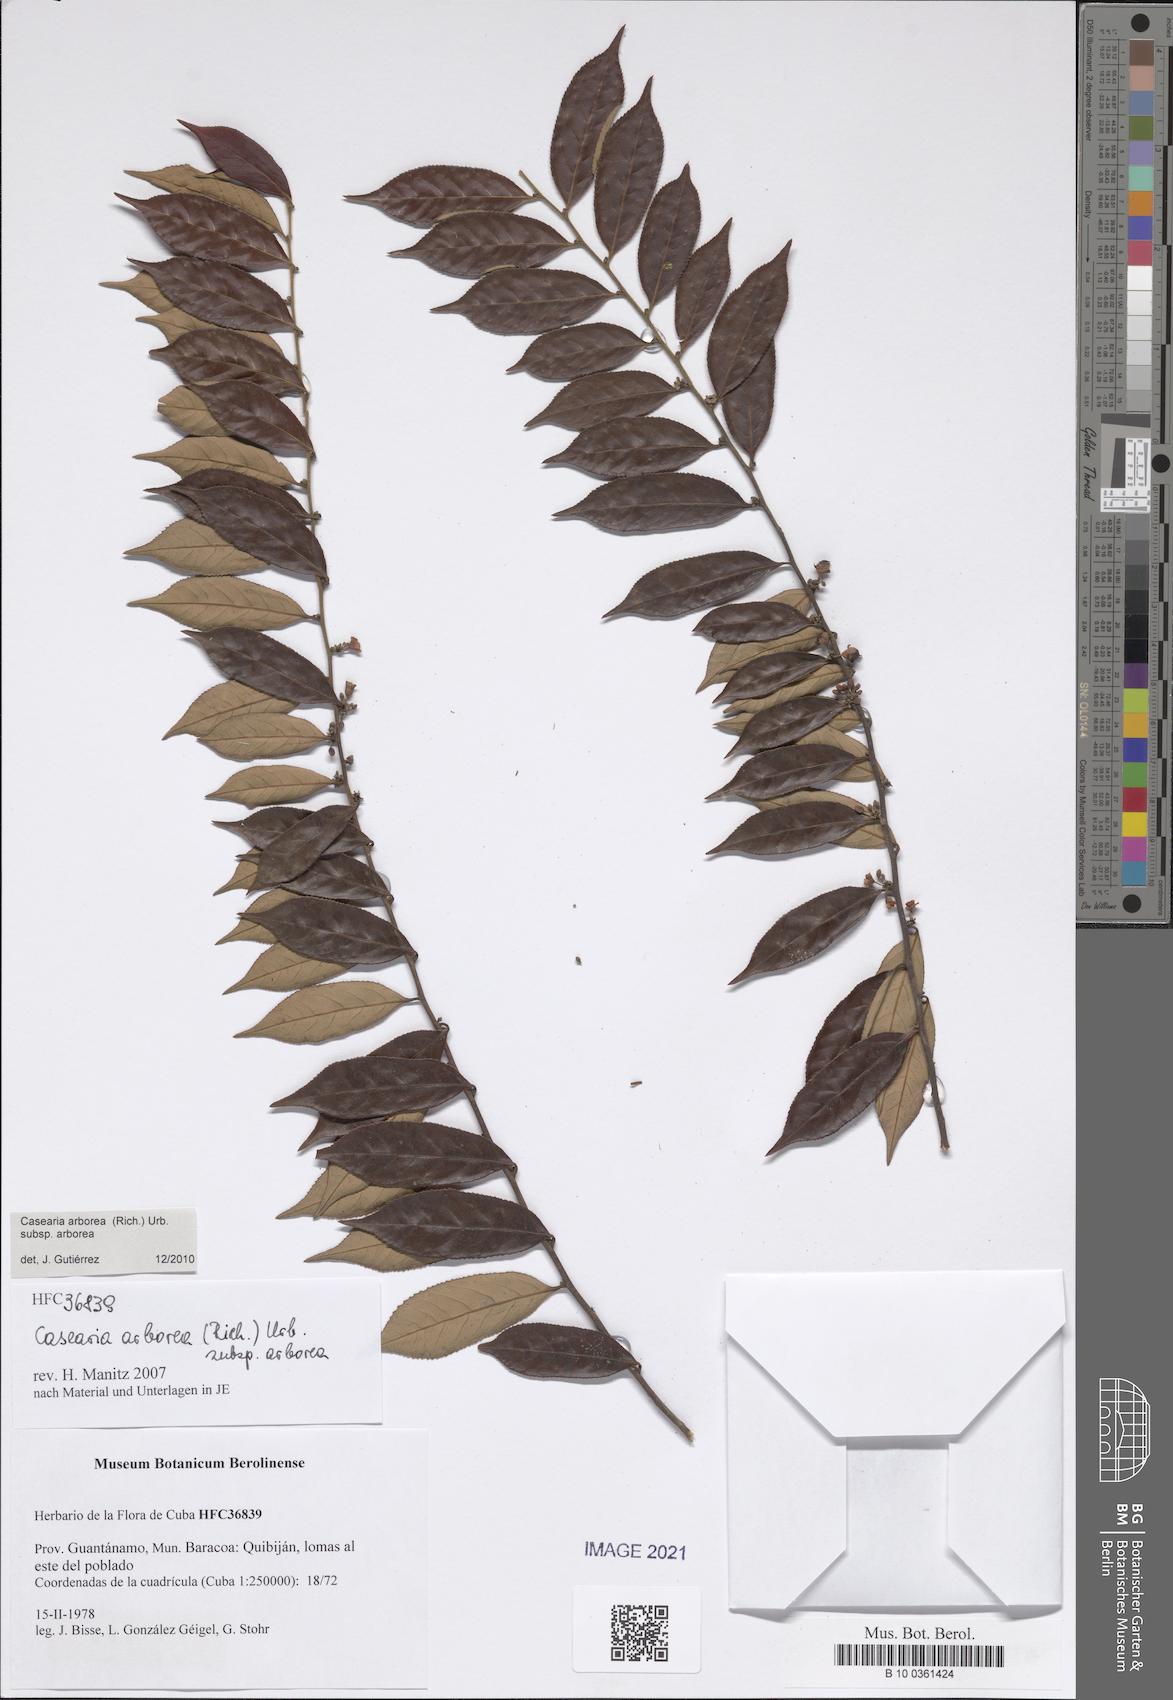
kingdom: Plantae
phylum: Tracheophyta
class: Magnoliopsida
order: Malpighiales
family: Salicaceae
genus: Casearia
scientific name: Casearia arborea
